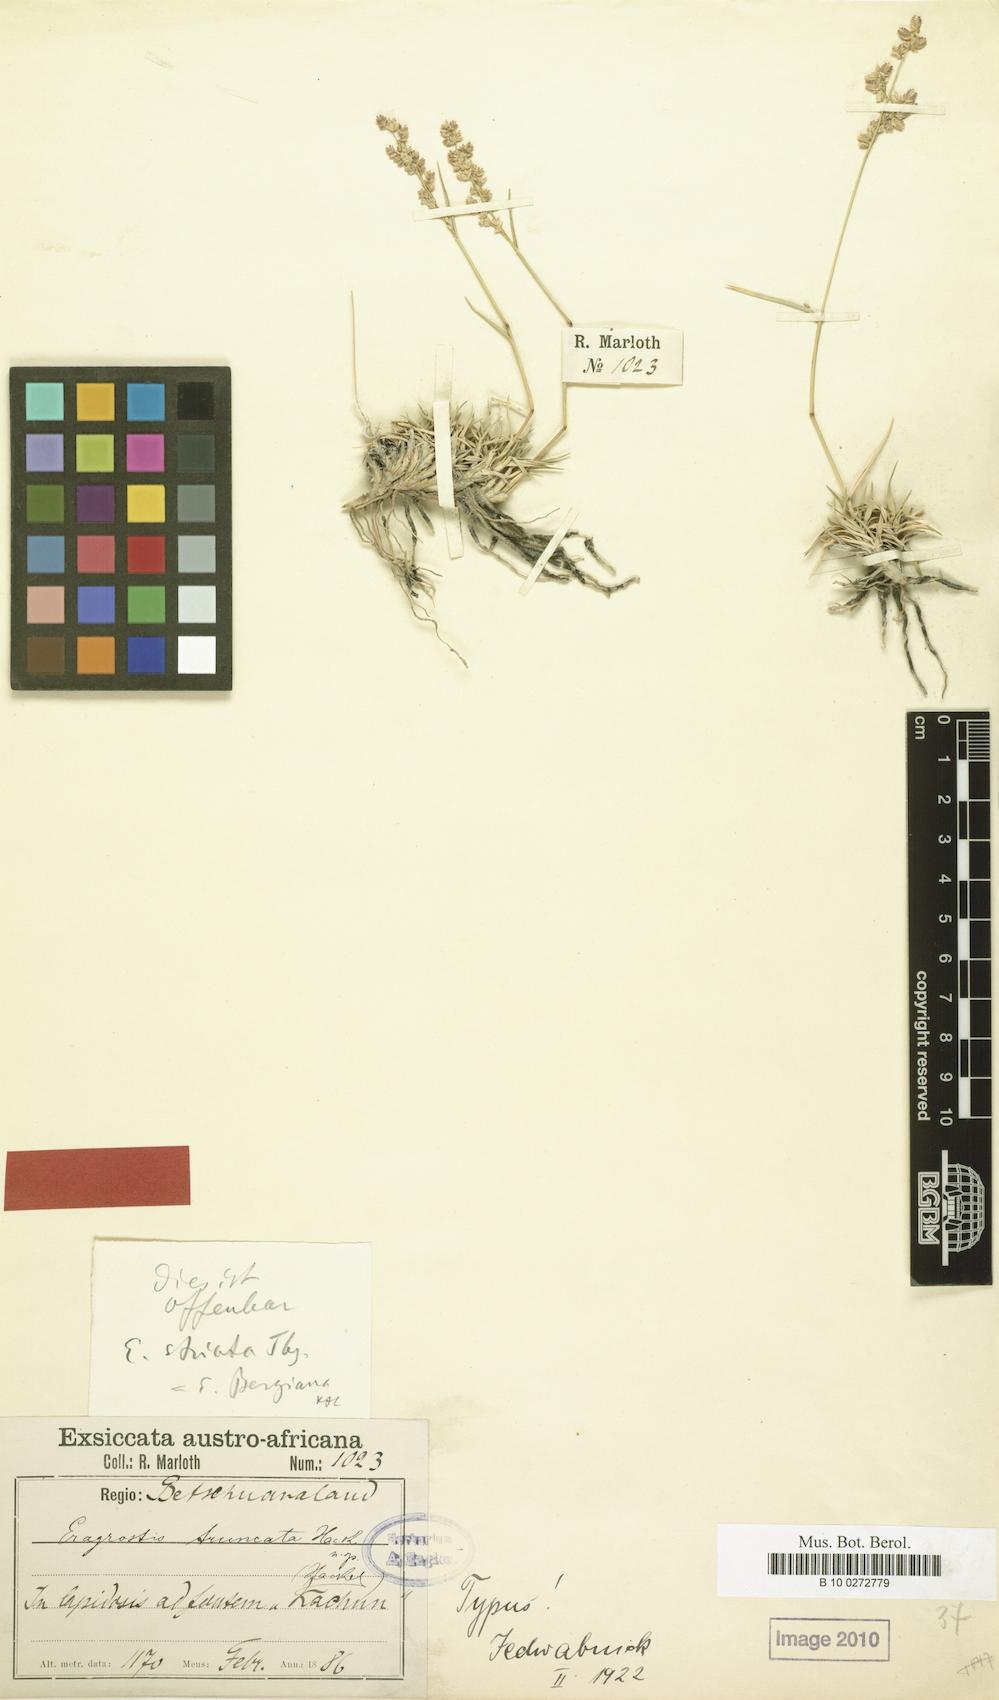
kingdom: Plantae
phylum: Tracheophyta
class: Liliopsida
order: Poales
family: Poaceae
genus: Eragrostis
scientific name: Eragrostis truncata
